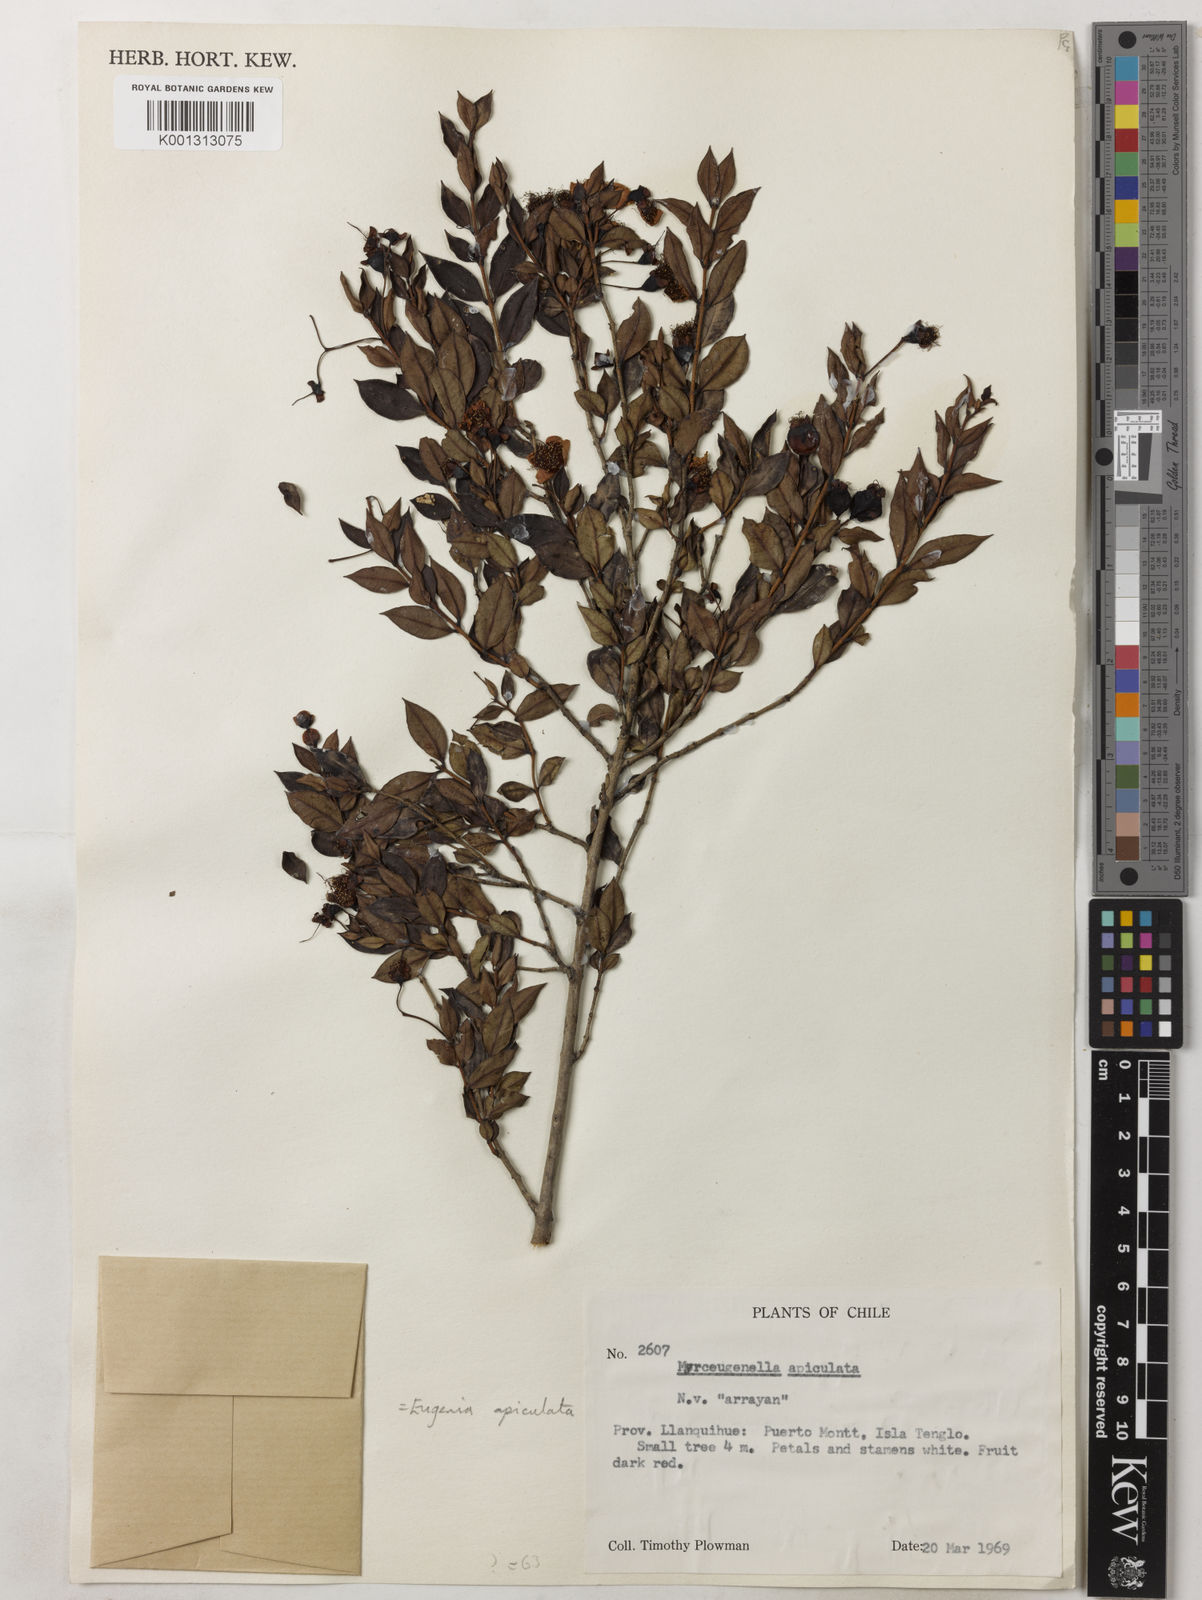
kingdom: Plantae
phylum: Tracheophyta
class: Magnoliopsida
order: Myrtales
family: Myrtaceae
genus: Luma
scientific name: Luma apiculata
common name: Chilean myrtle
